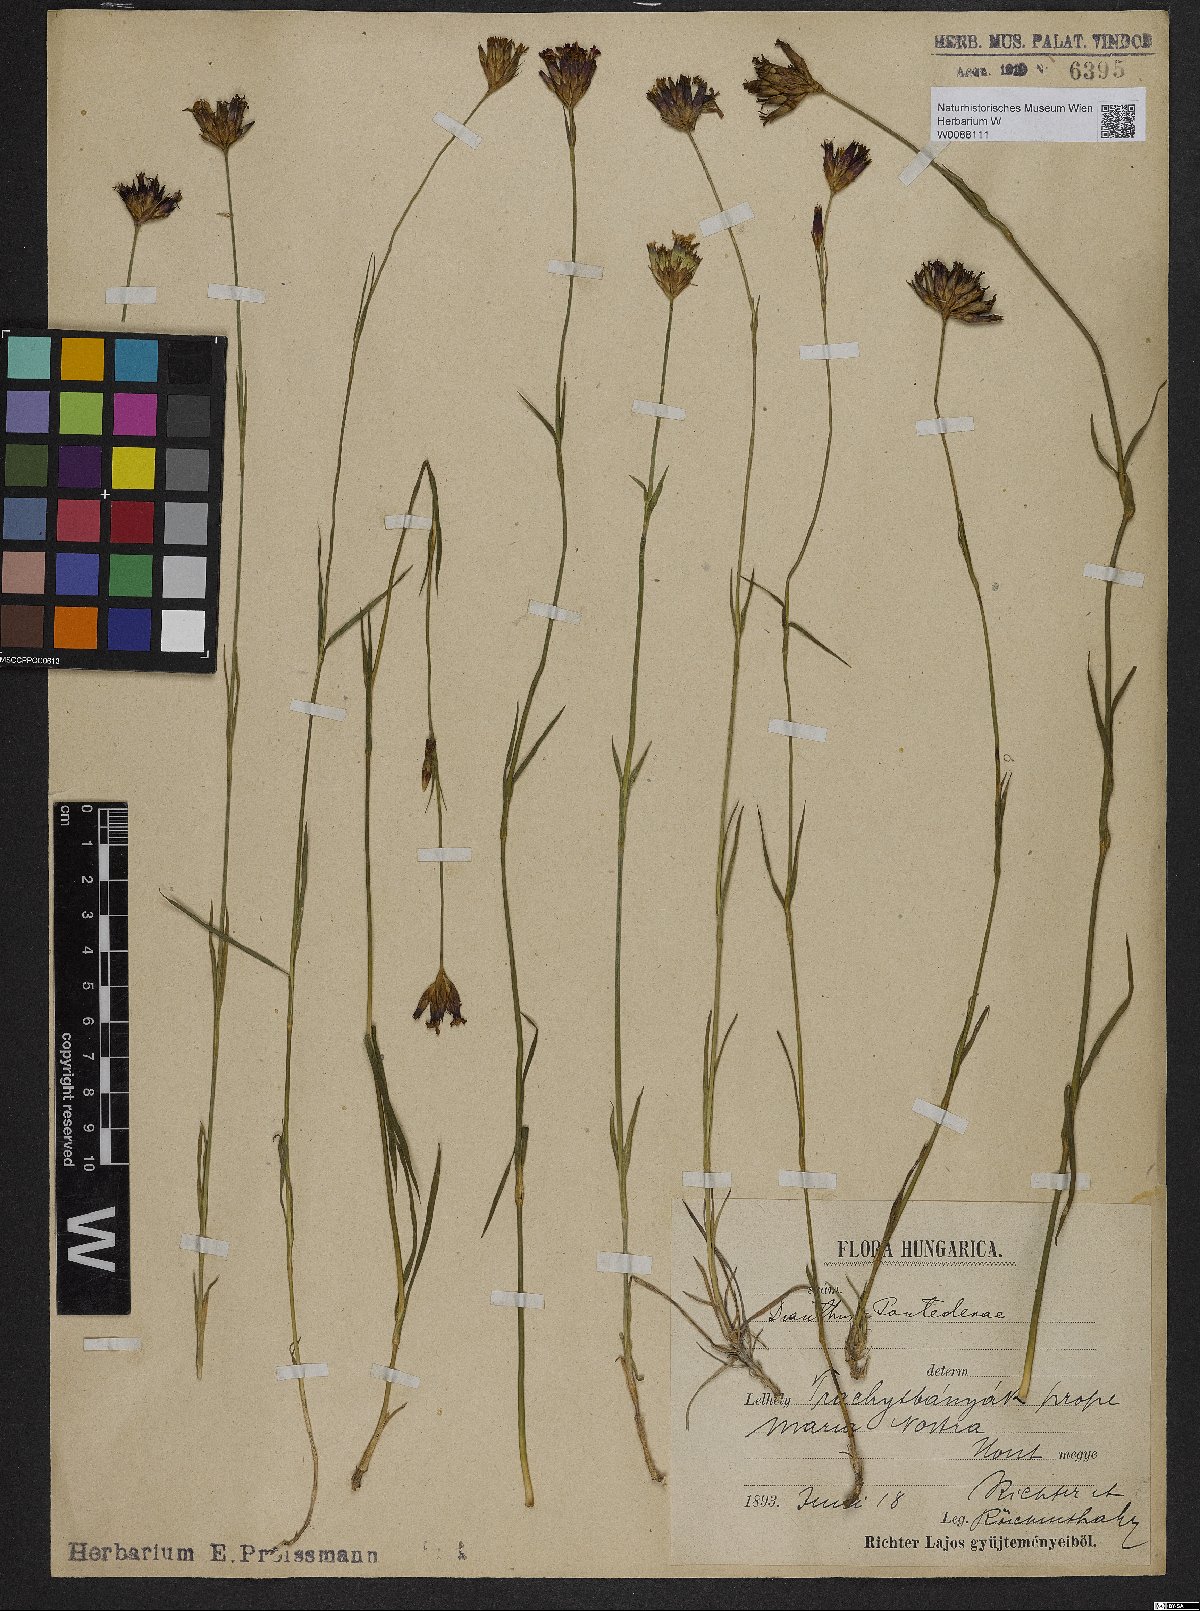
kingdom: Plantae
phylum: Tracheophyta
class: Magnoliopsida
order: Caryophyllales
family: Caryophyllaceae
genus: Dianthus
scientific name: Dianthus pontederae
